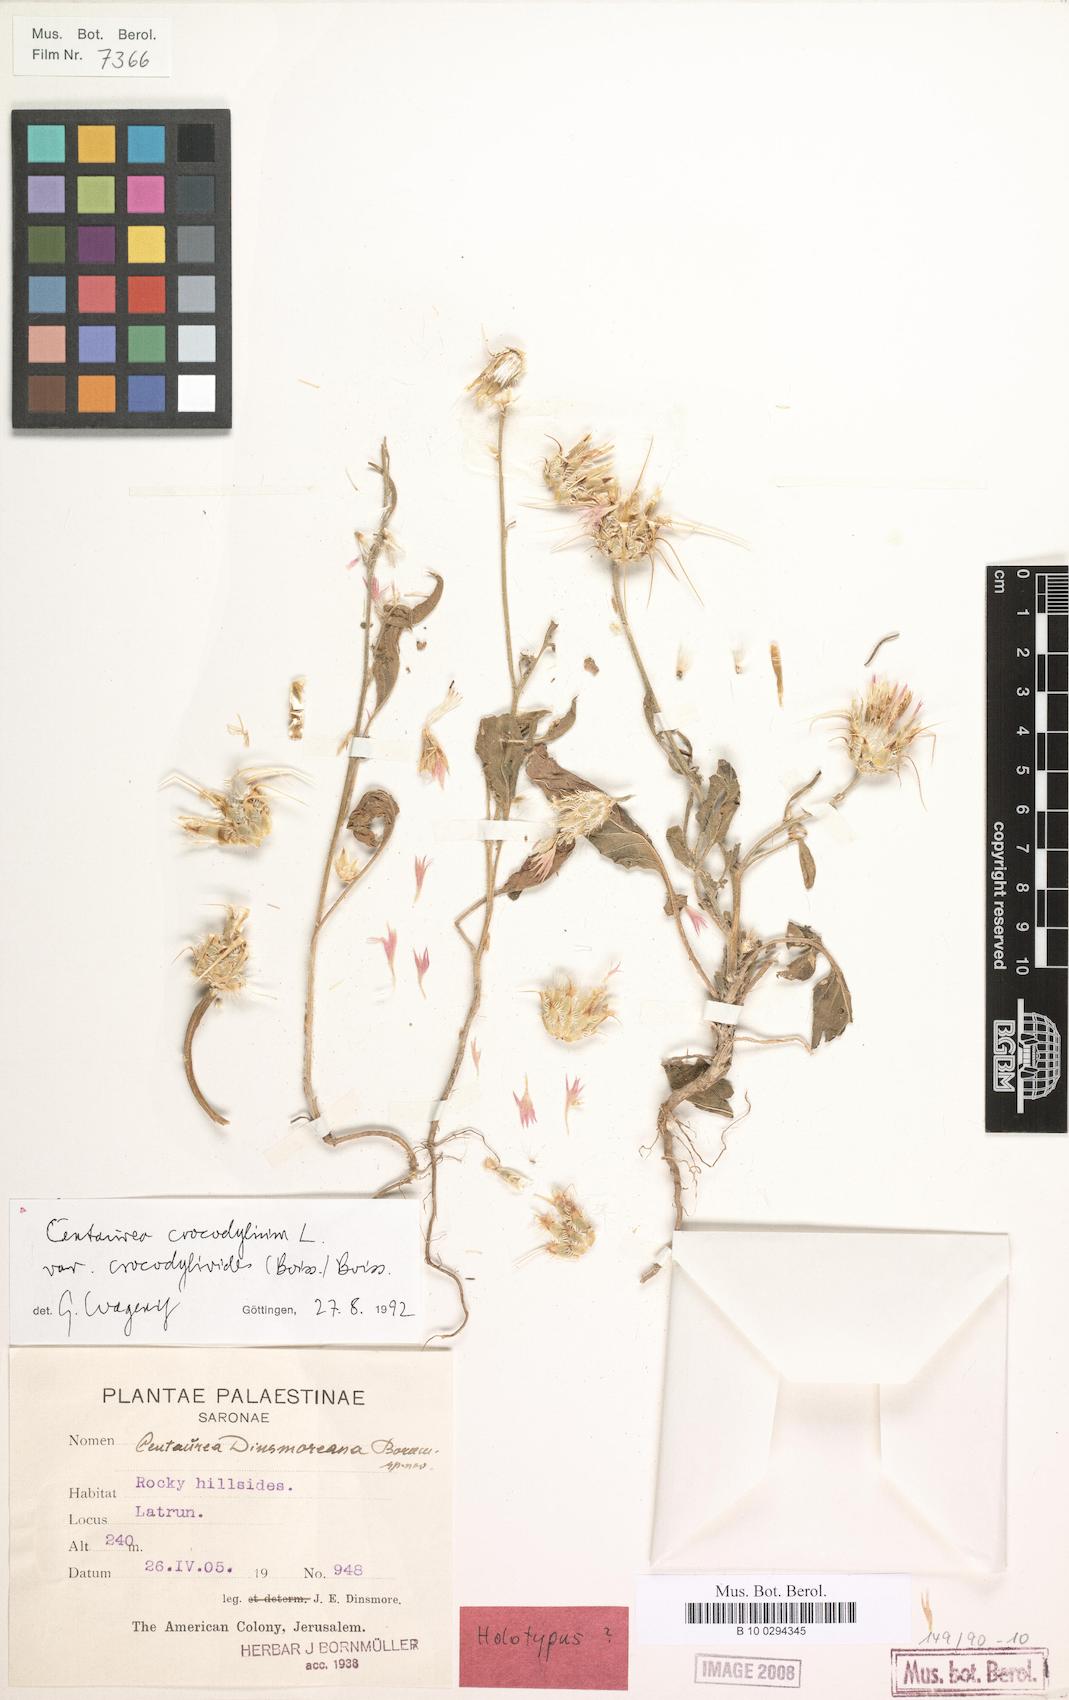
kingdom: Plantae
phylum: Tracheophyta
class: Magnoliopsida
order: Asterales
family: Asteraceae
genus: Crocodilium
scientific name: Crocodilium crocodylium
